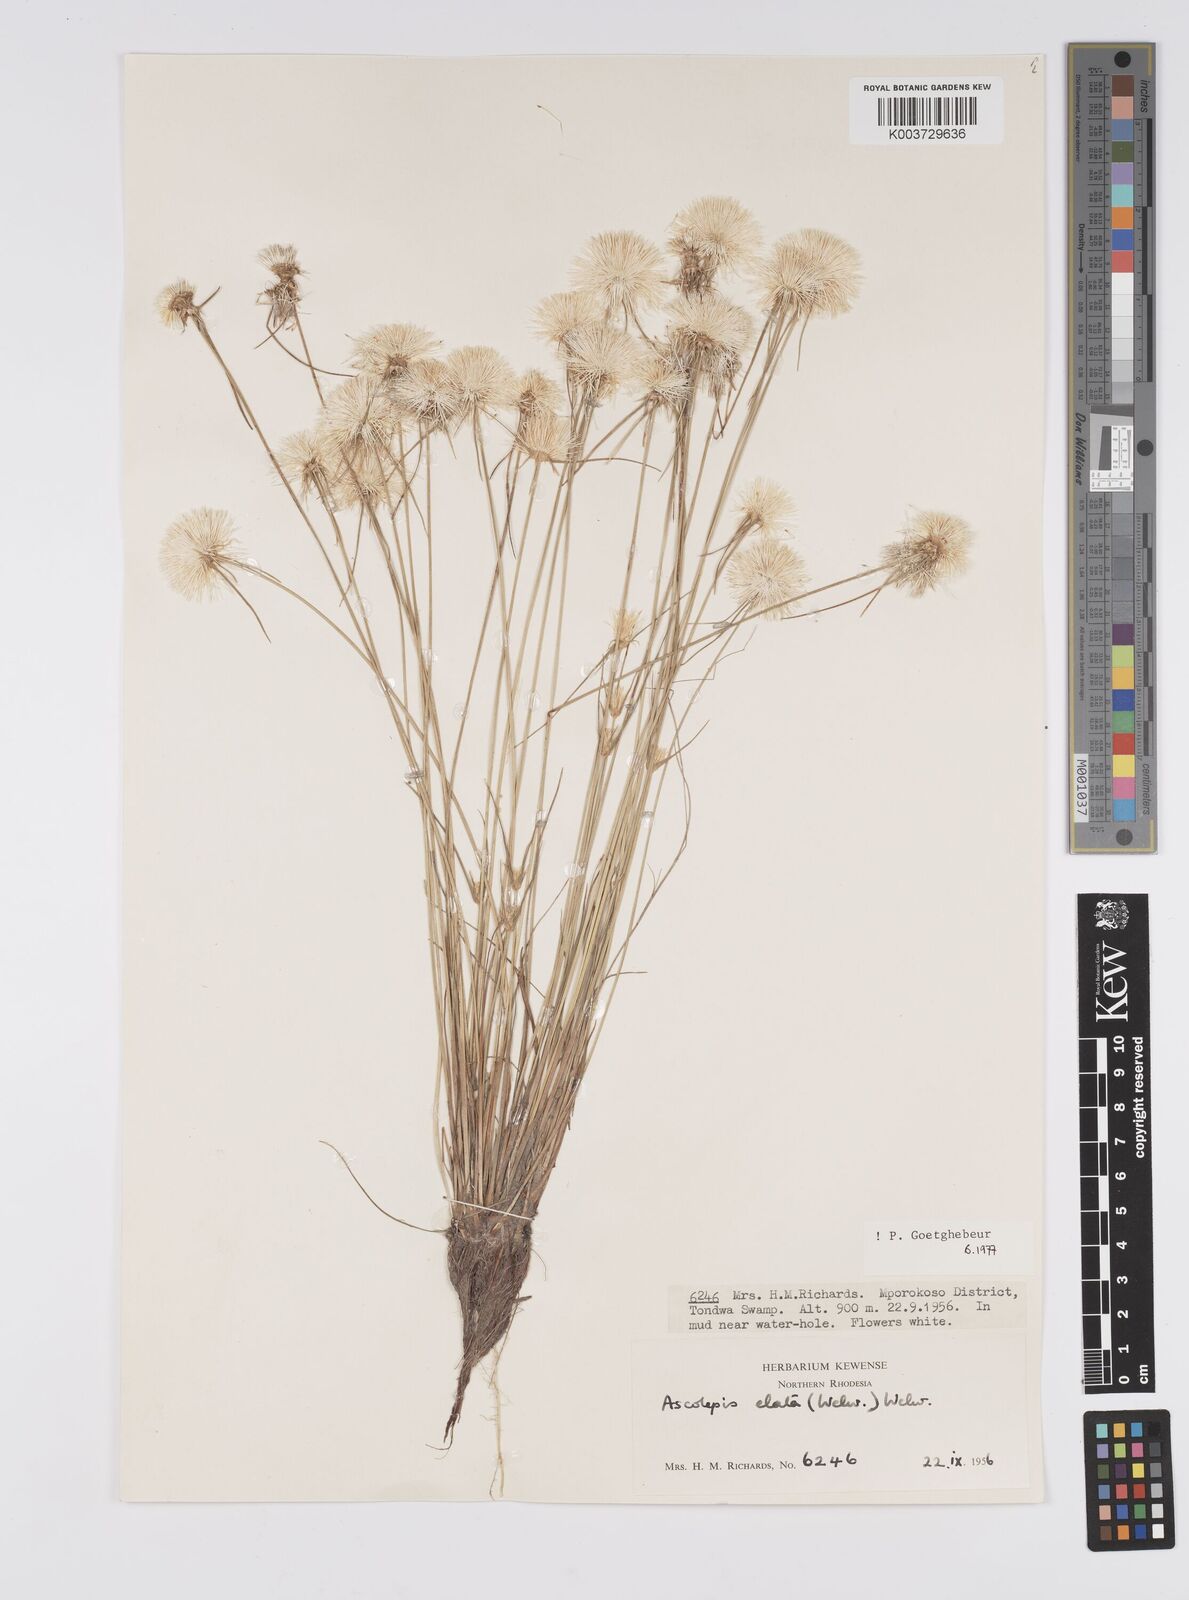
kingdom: Plantae
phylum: Tracheophyta
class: Liliopsida
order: Poales
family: Cyperaceae
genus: Cyperus
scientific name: Cyperus
